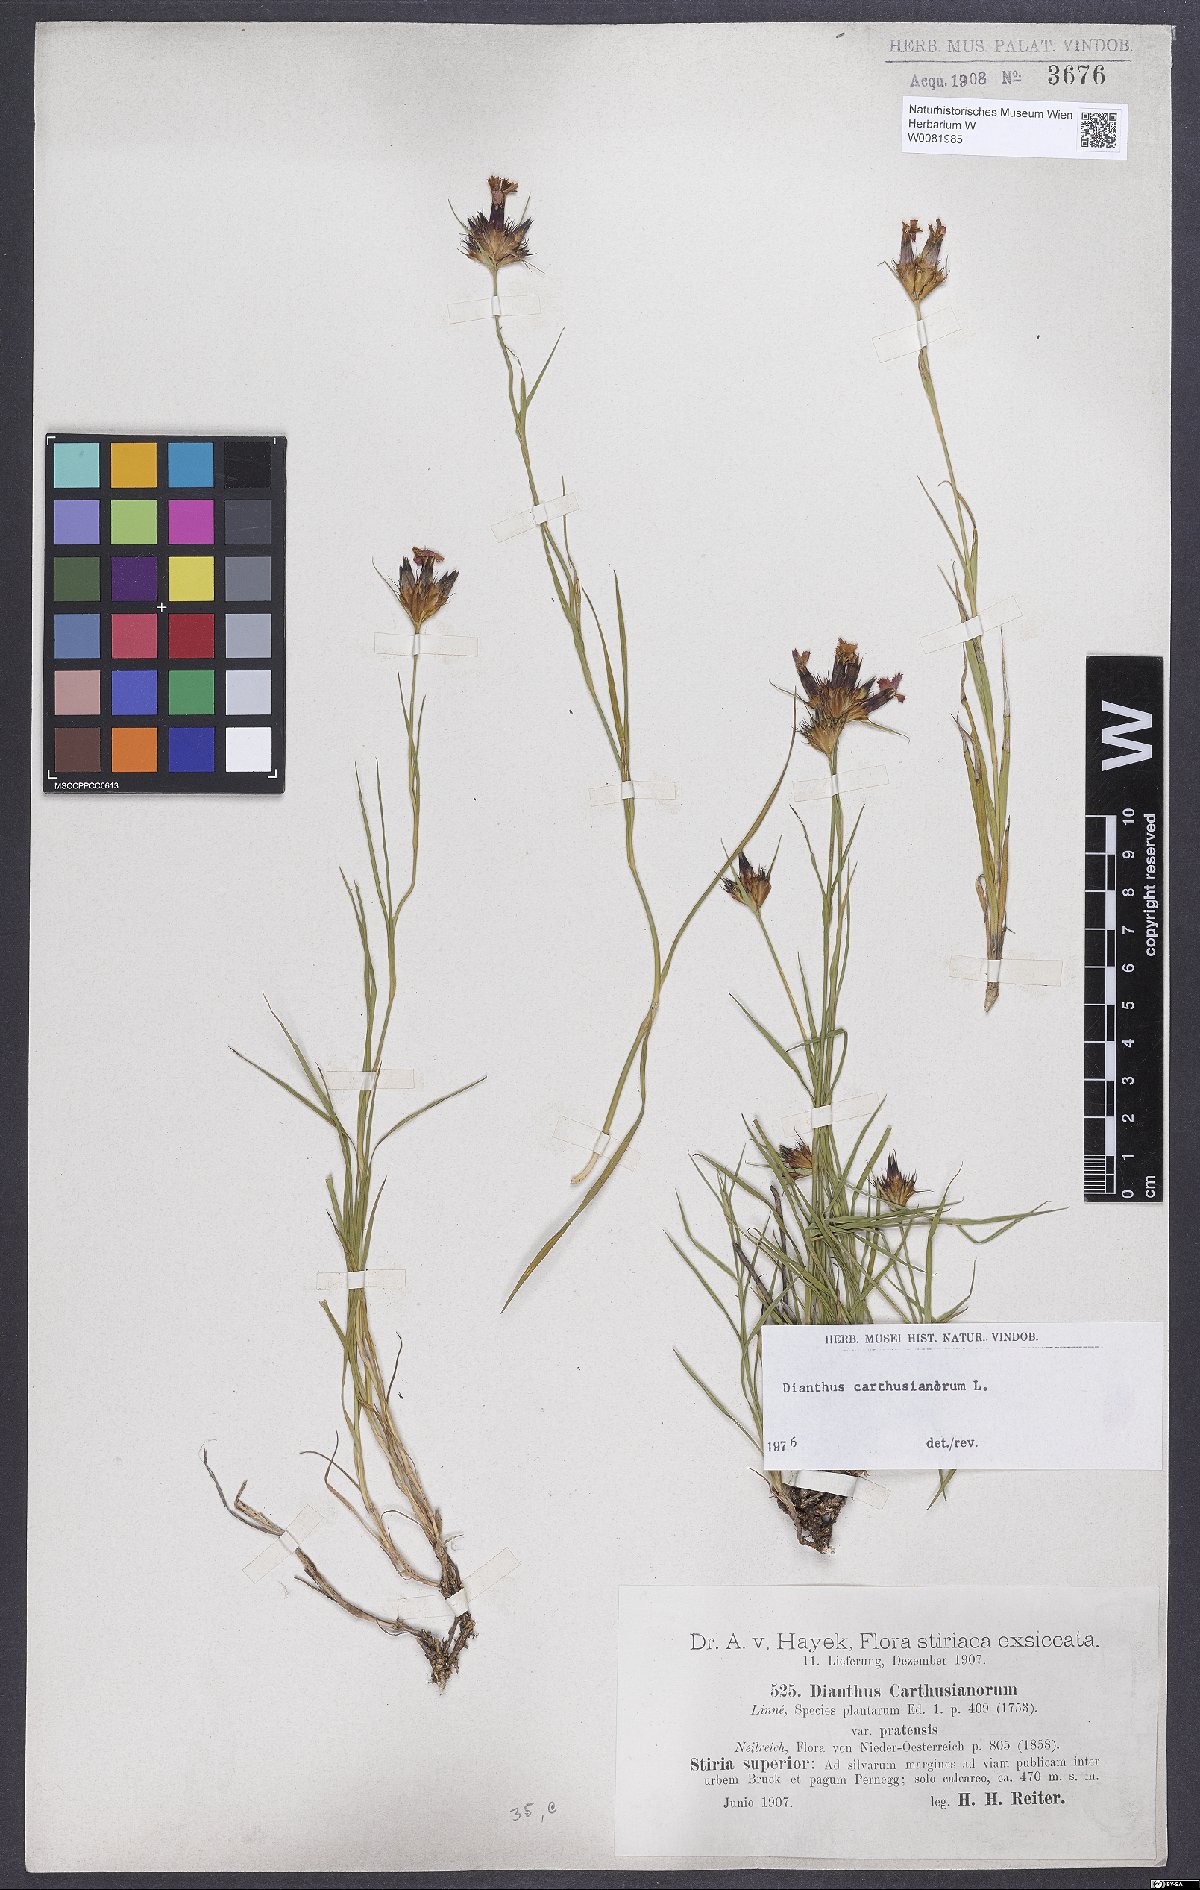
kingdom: Plantae
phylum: Tracheophyta
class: Magnoliopsida
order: Caryophyllales
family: Caryophyllaceae
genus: Dianthus
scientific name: Dianthus carthusianorum
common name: Carthusian pink
